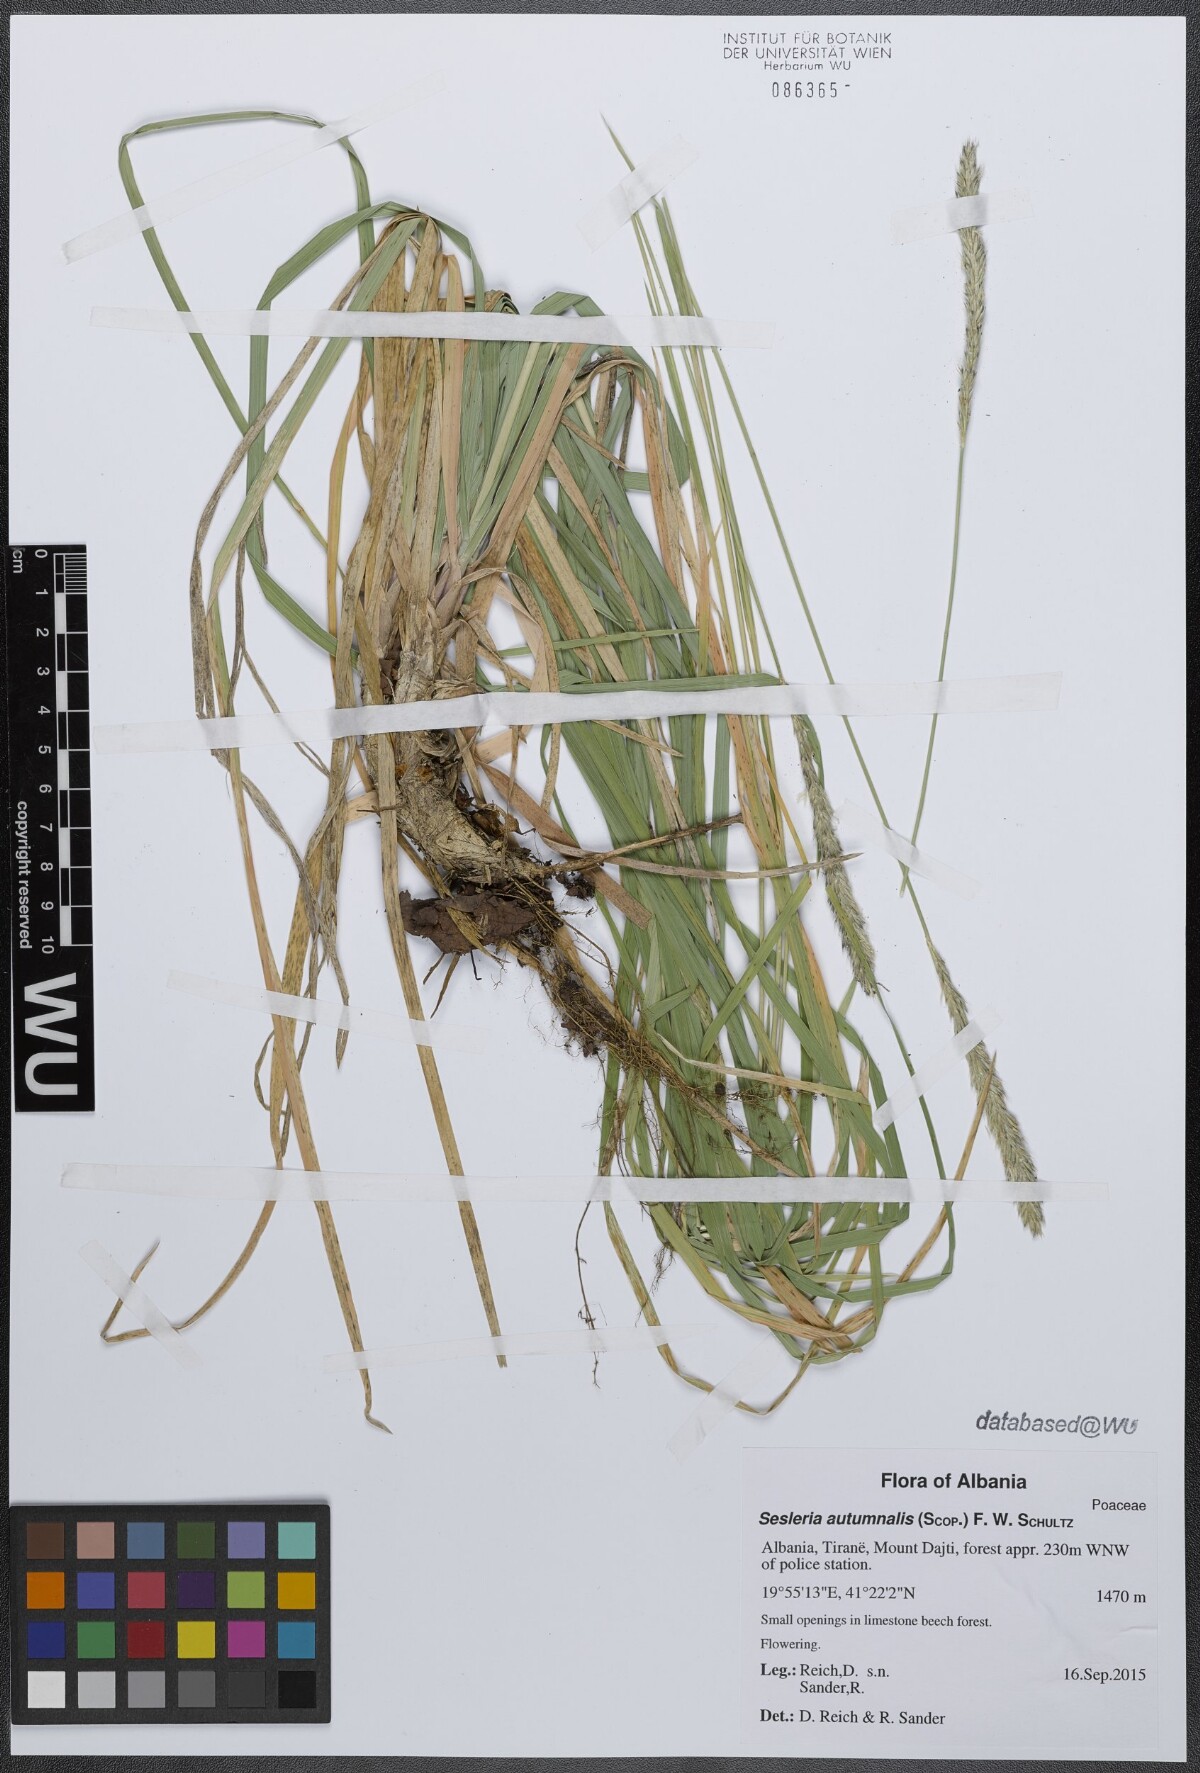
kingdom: Plantae
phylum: Tracheophyta
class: Liliopsida
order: Poales
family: Poaceae
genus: Sesleria
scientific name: Sesleria autumnalis
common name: Autumn moor grass
